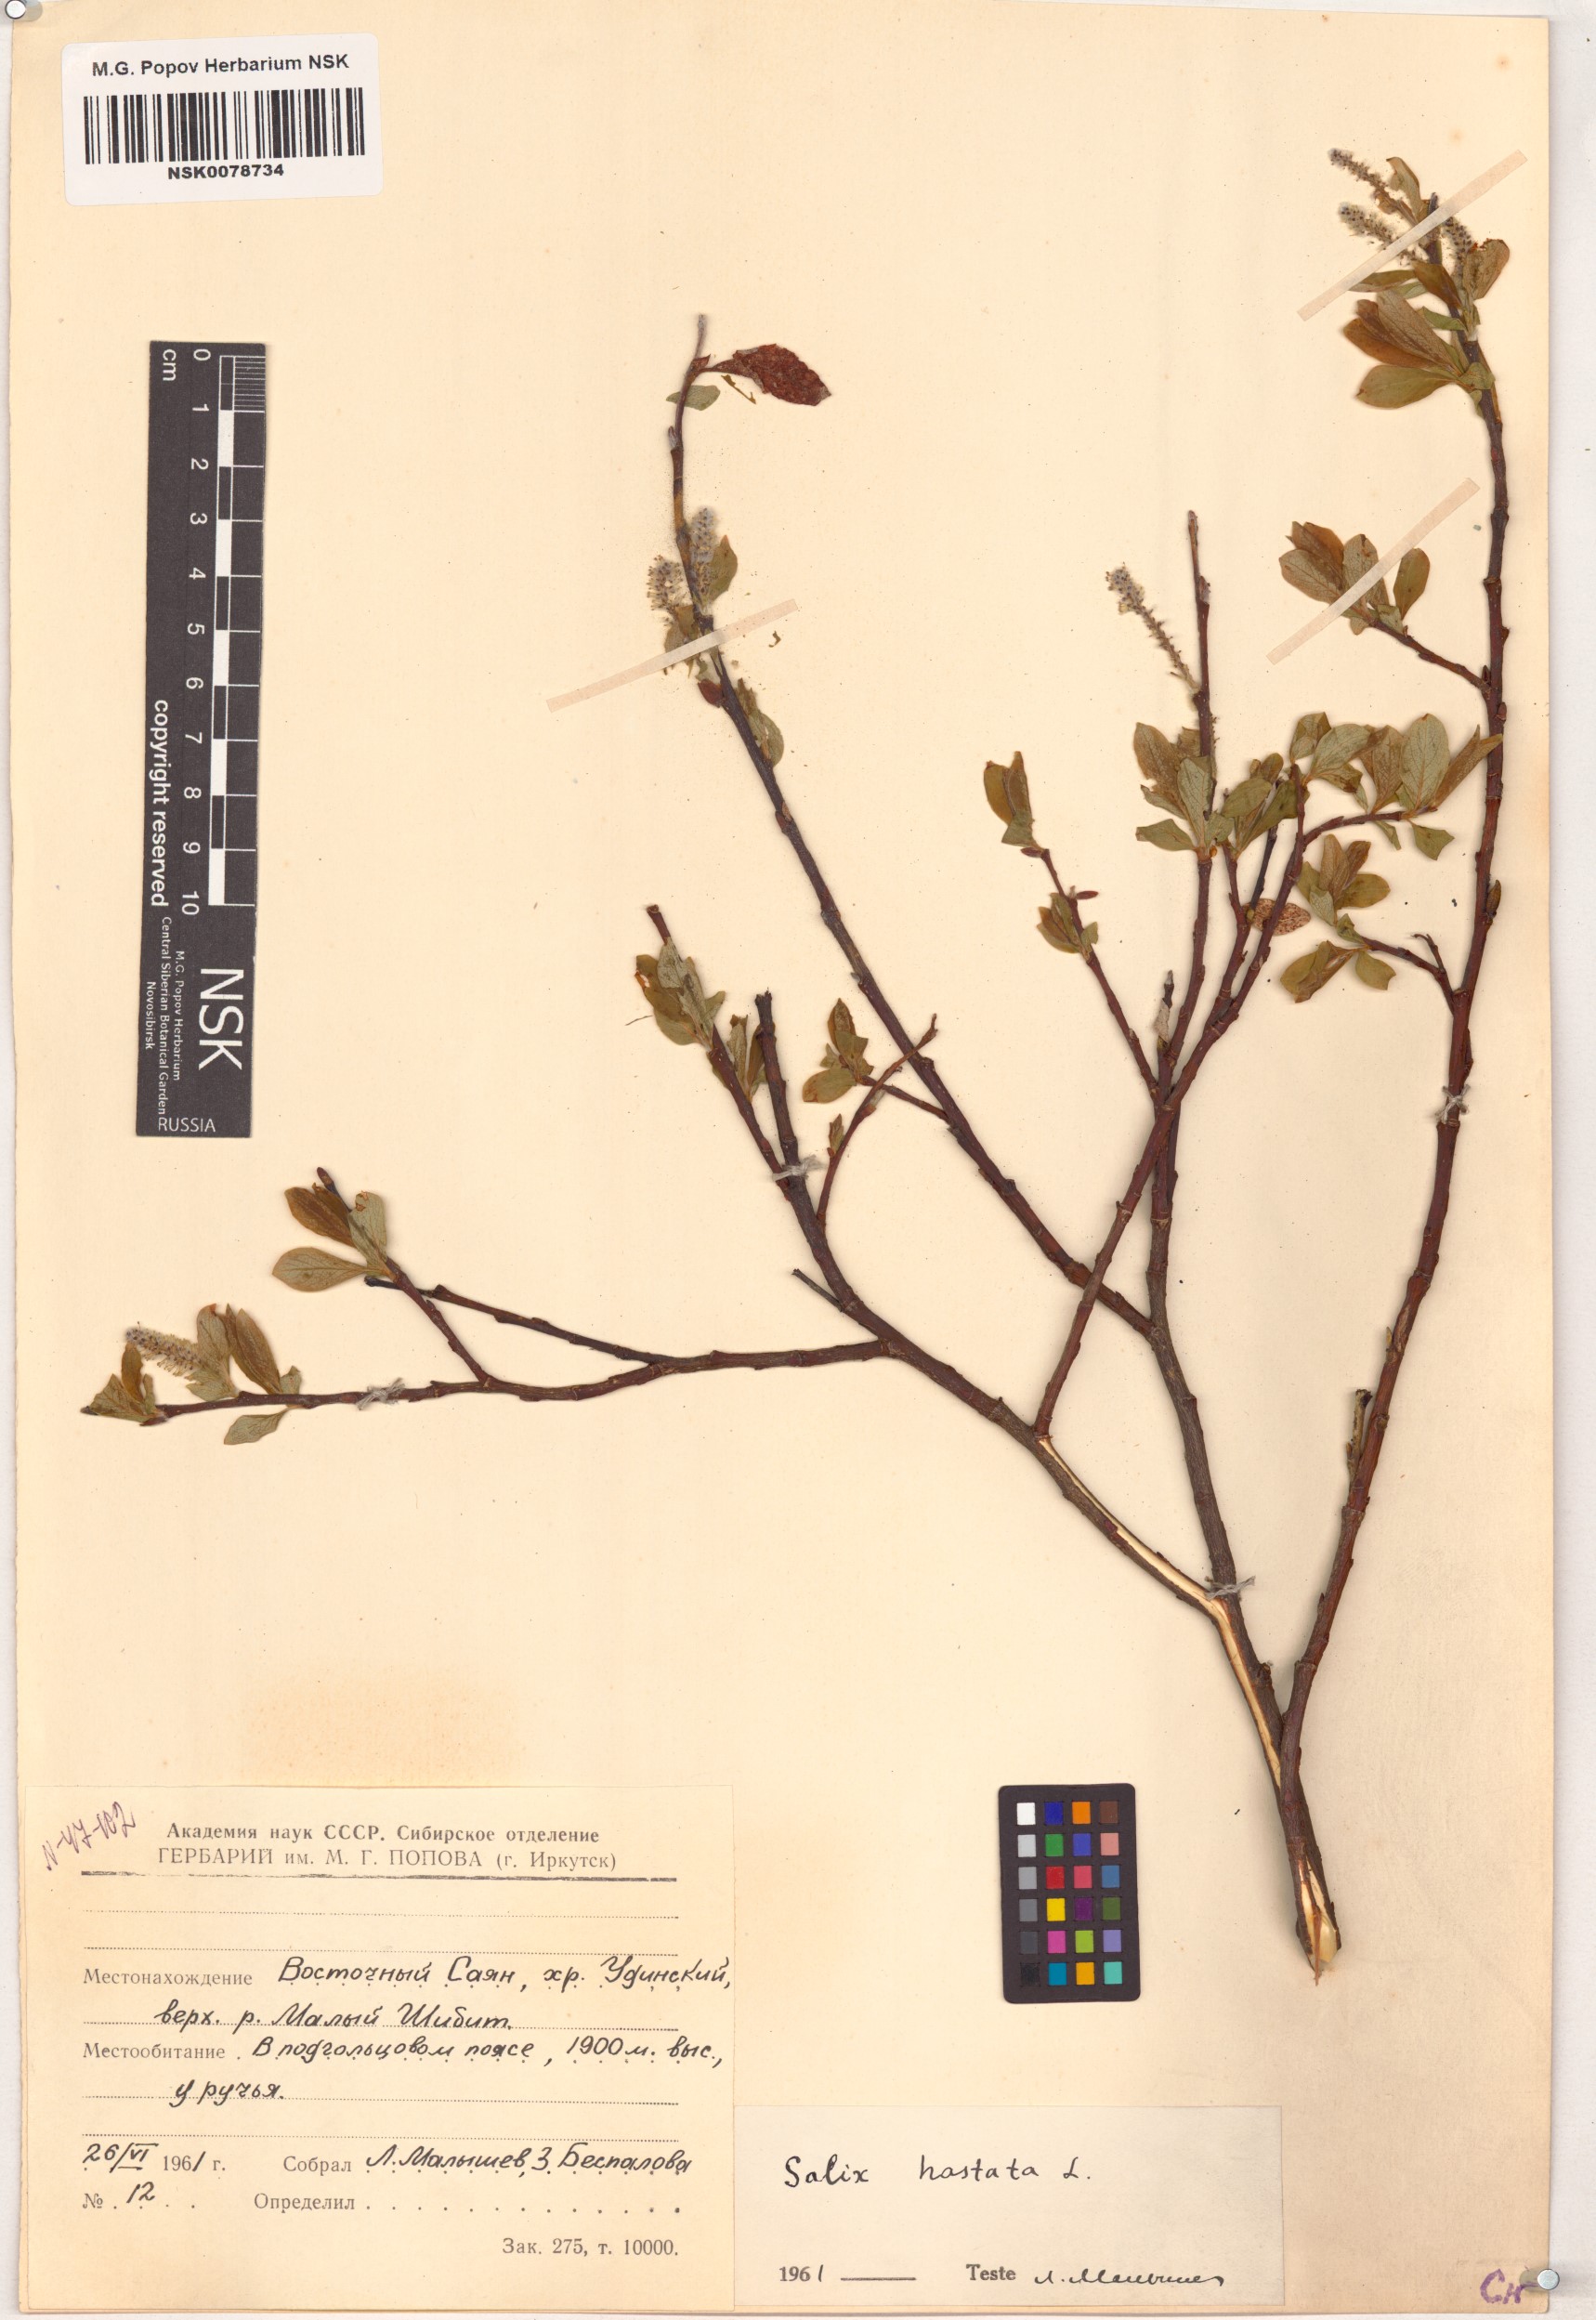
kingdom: Plantae
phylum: Tracheophyta
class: Magnoliopsida
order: Malpighiales
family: Salicaceae
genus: Salix
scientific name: Salix hastata
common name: Halberd willow
